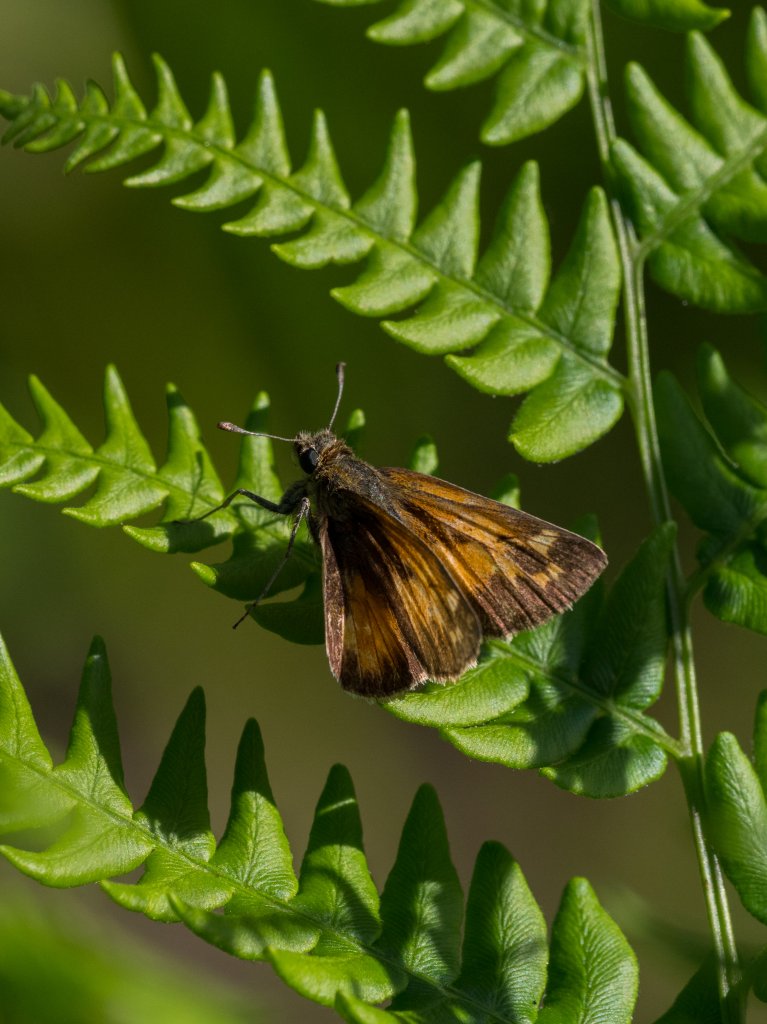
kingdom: Animalia
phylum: Arthropoda
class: Insecta
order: Lepidoptera
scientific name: Lepidoptera
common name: Butterflies
